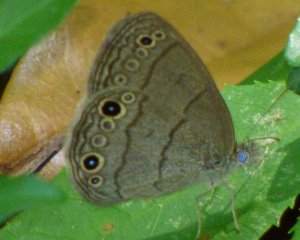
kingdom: Animalia
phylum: Arthropoda
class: Insecta
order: Lepidoptera
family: Nymphalidae
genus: Hermeuptychia
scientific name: Hermeuptychia hermes
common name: Carolina Satyr
